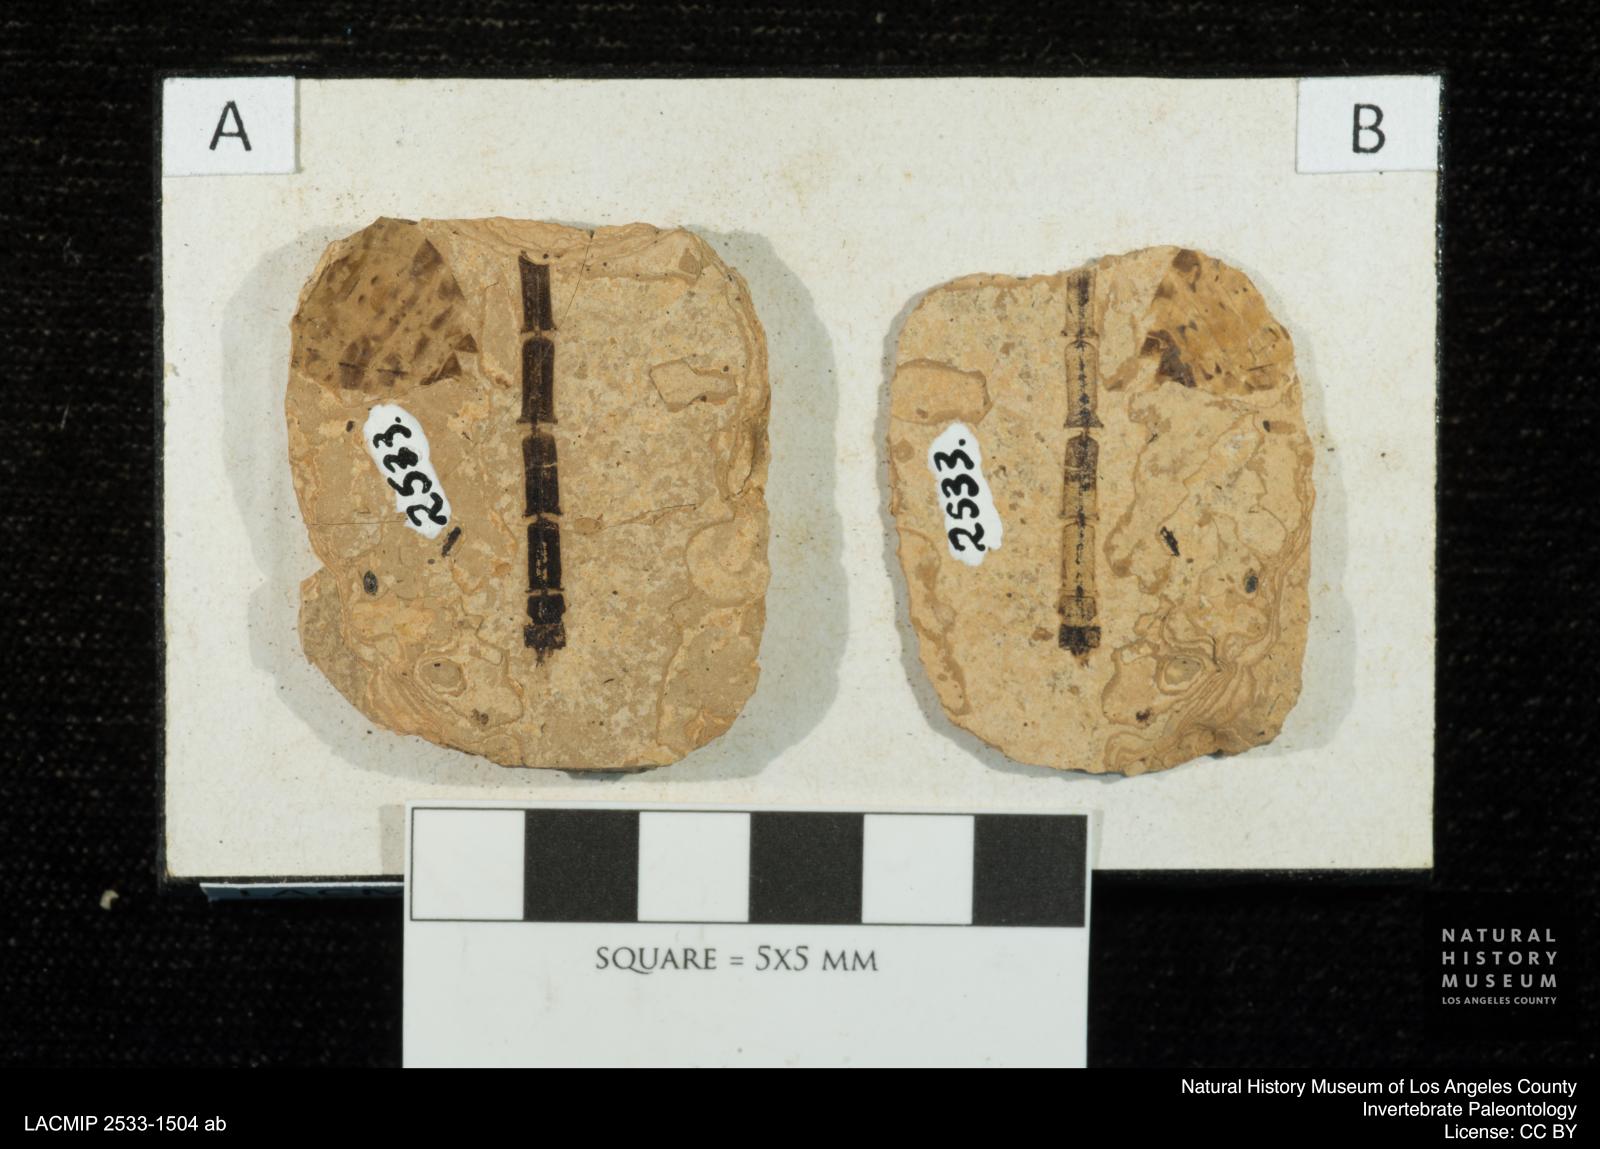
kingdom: Animalia
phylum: Arthropoda
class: Insecta
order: Odonata
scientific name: Odonata
